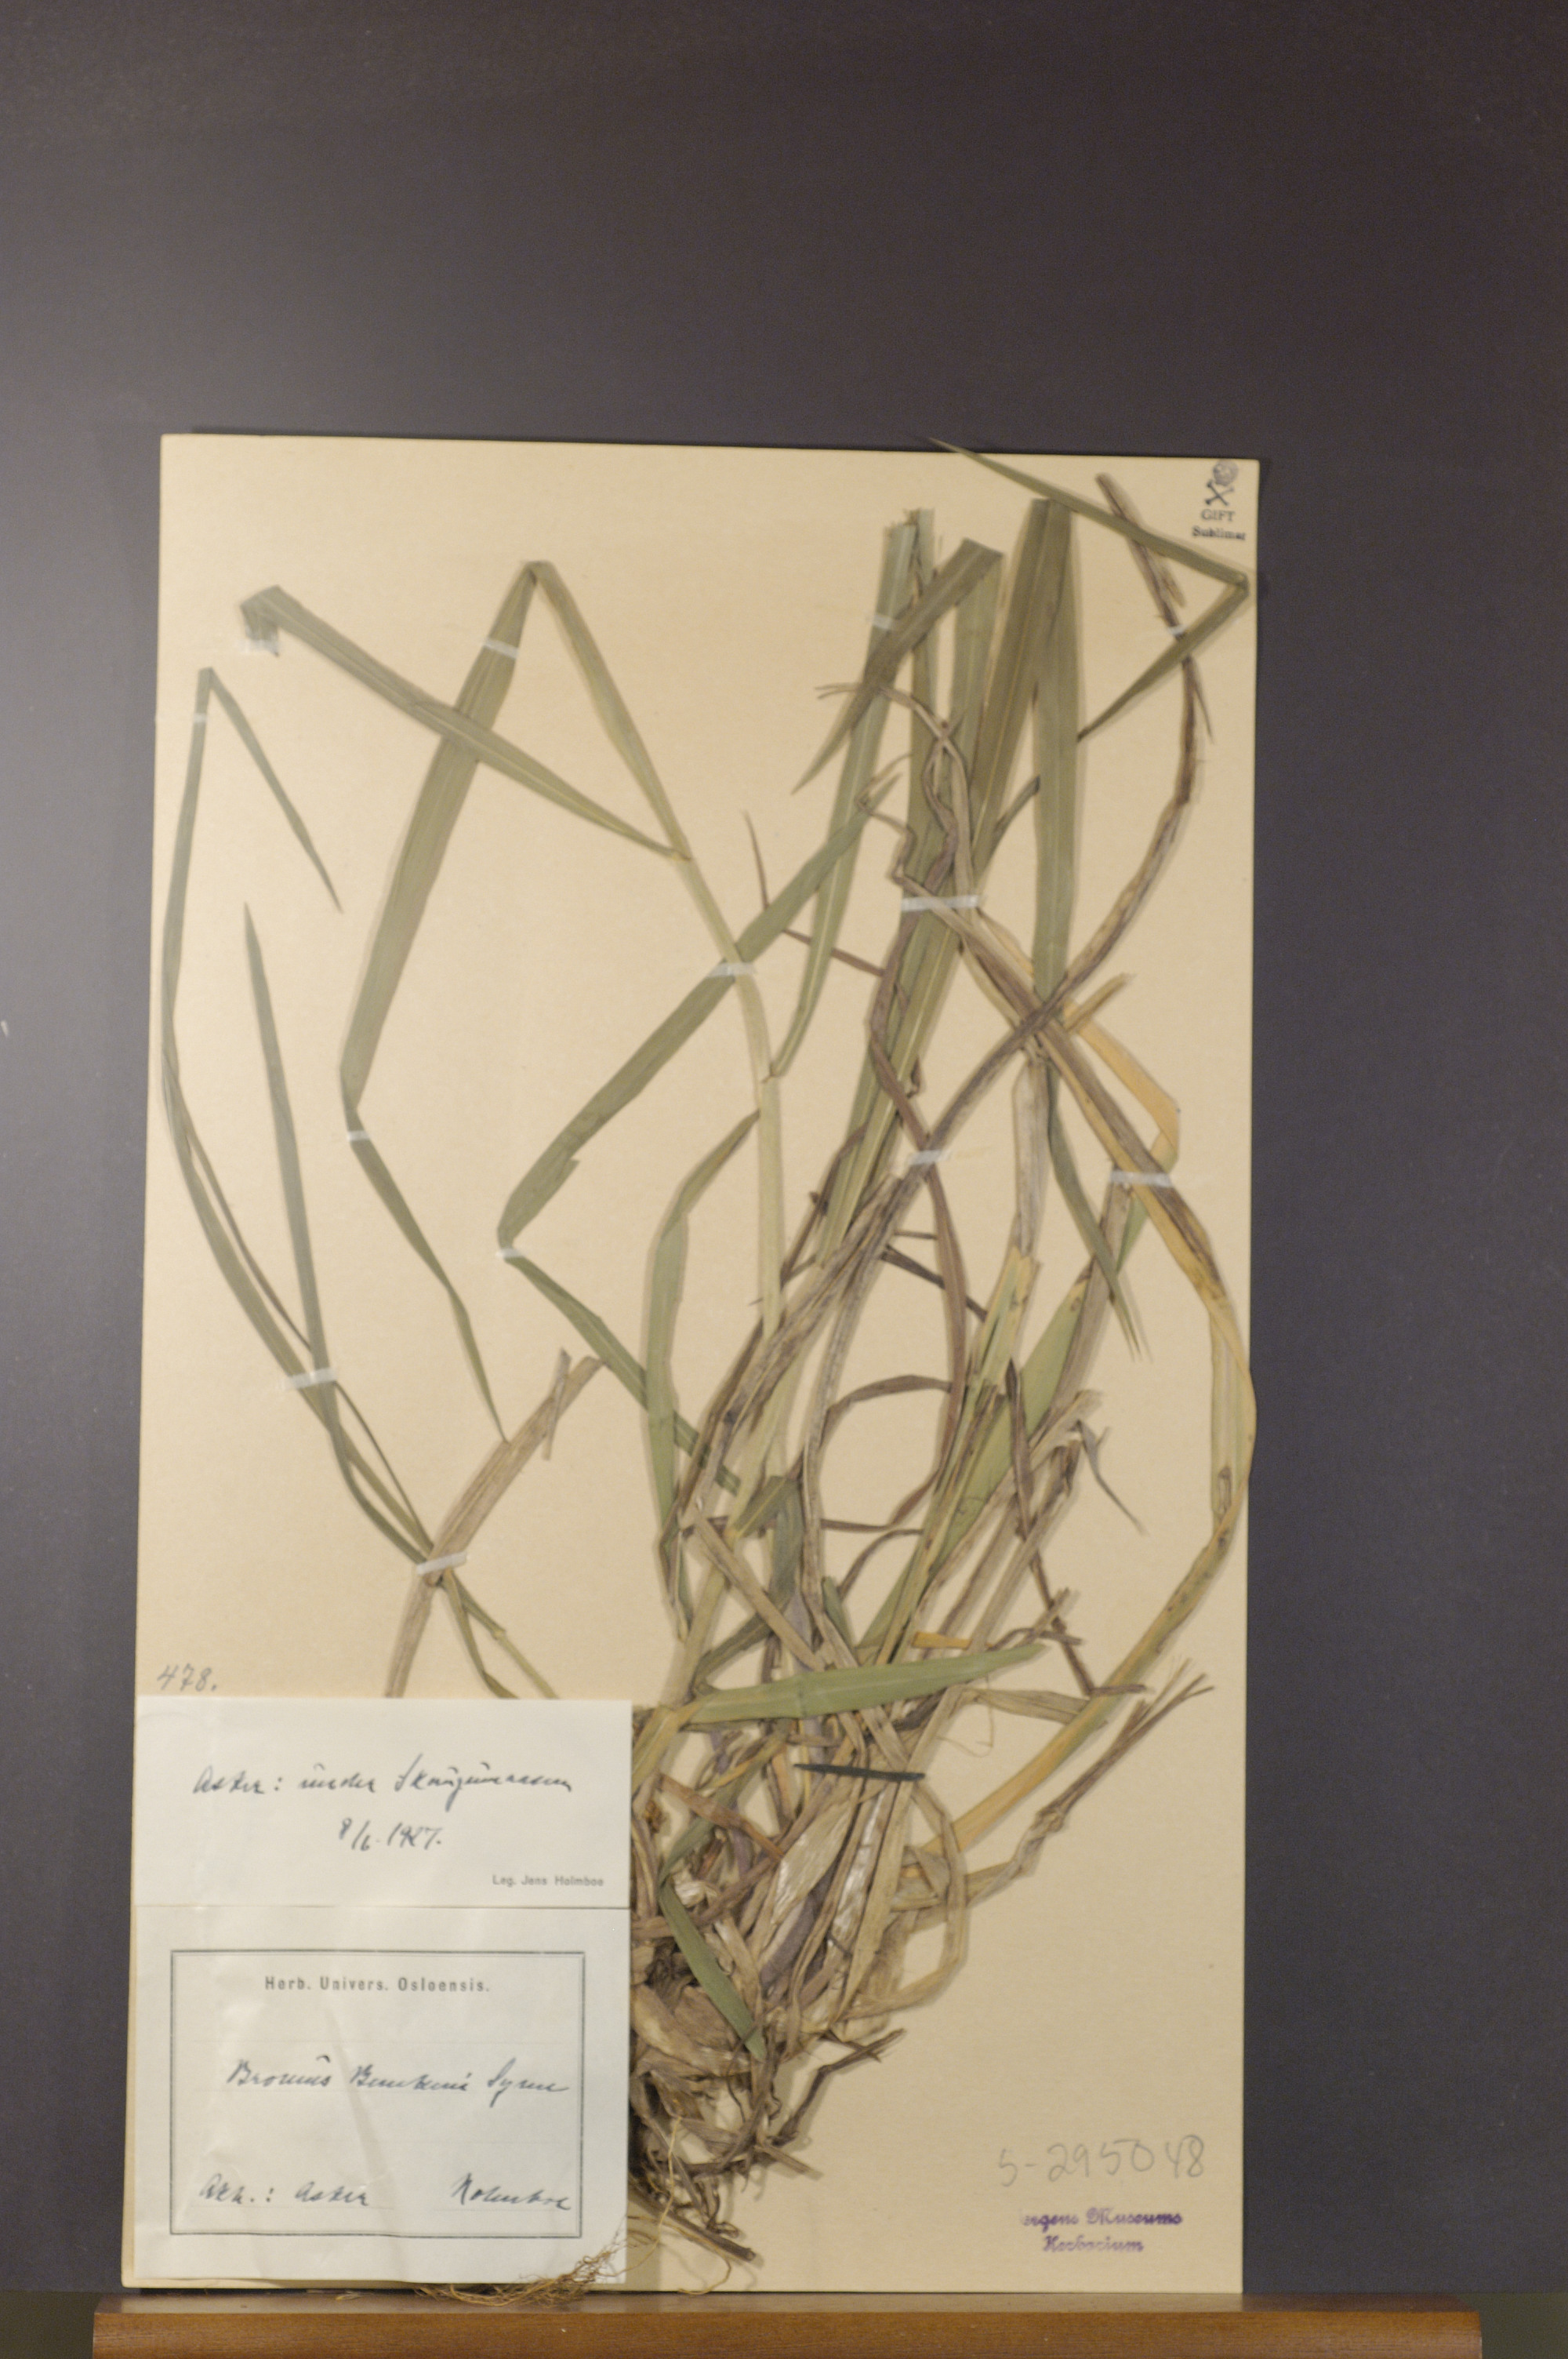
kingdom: Plantae
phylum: Tracheophyta
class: Liliopsida
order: Poales
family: Poaceae
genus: Bromus
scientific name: Bromus benekenii
